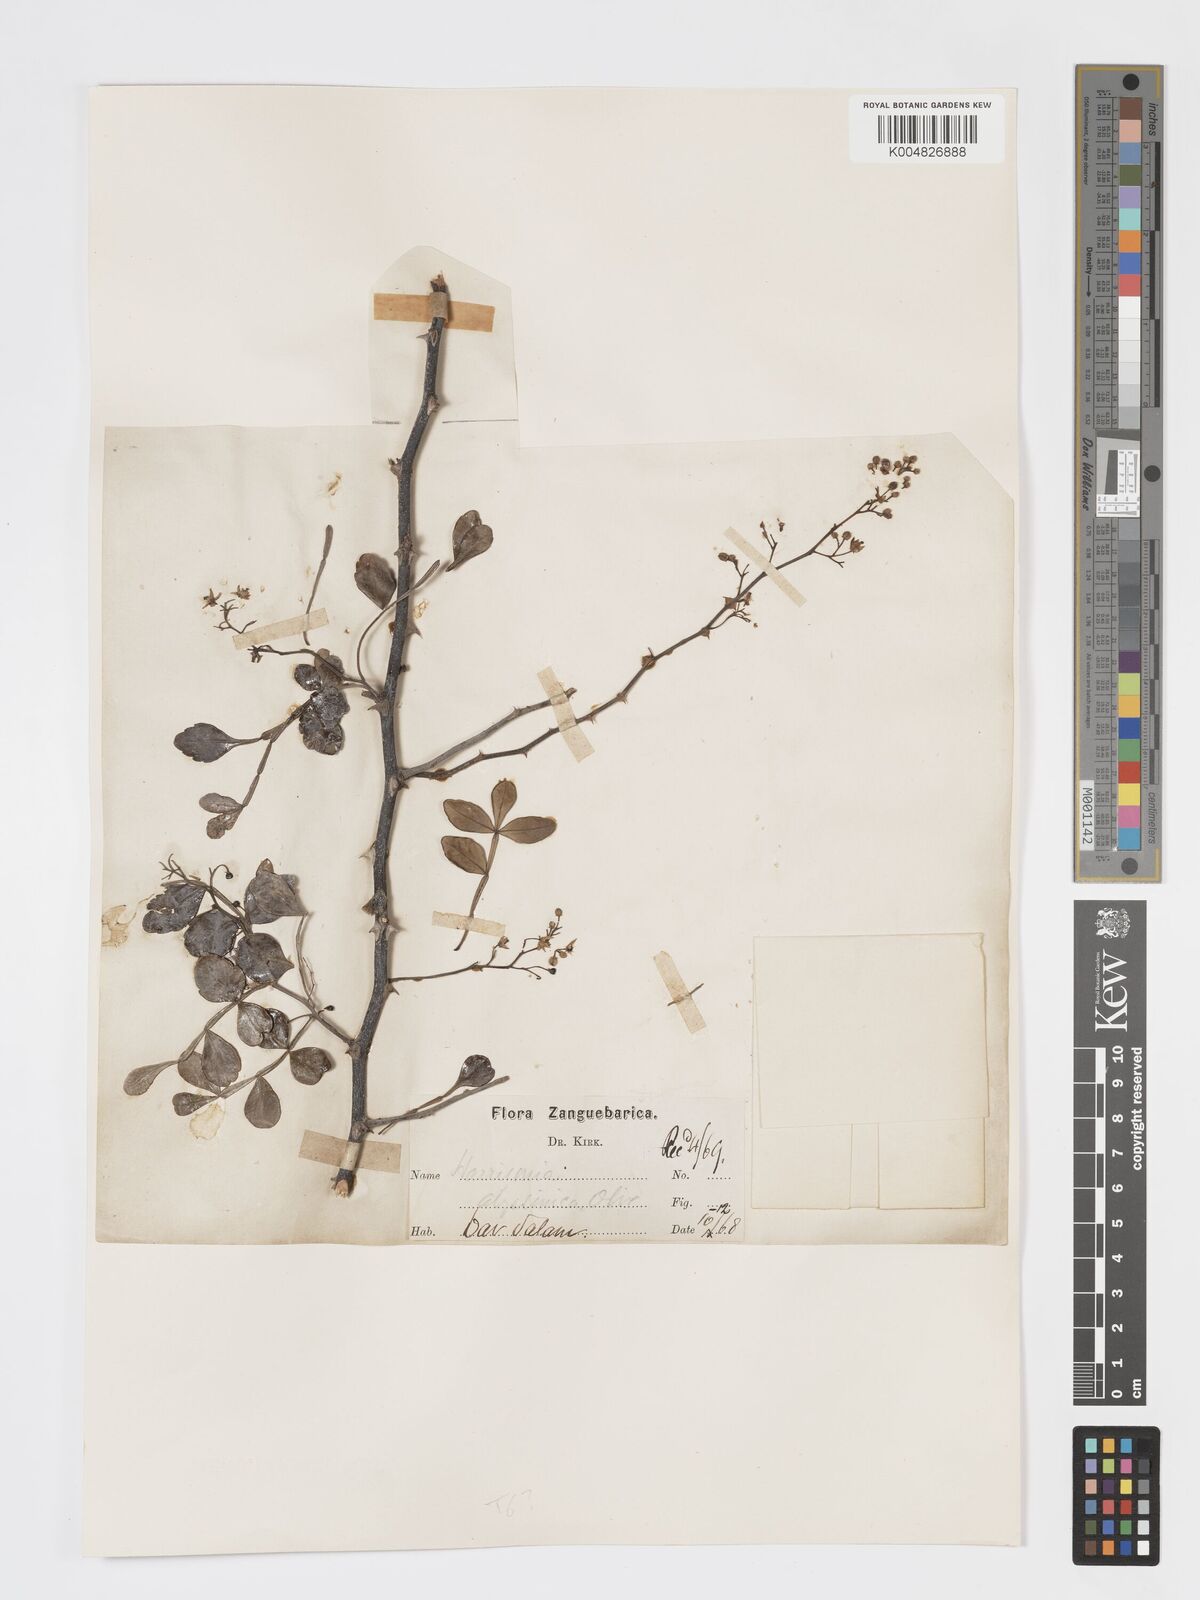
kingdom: Plantae
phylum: Tracheophyta
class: Magnoliopsida
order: Sapindales
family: Rutaceae
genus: Harrisonia
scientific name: Harrisonia abyssinica
